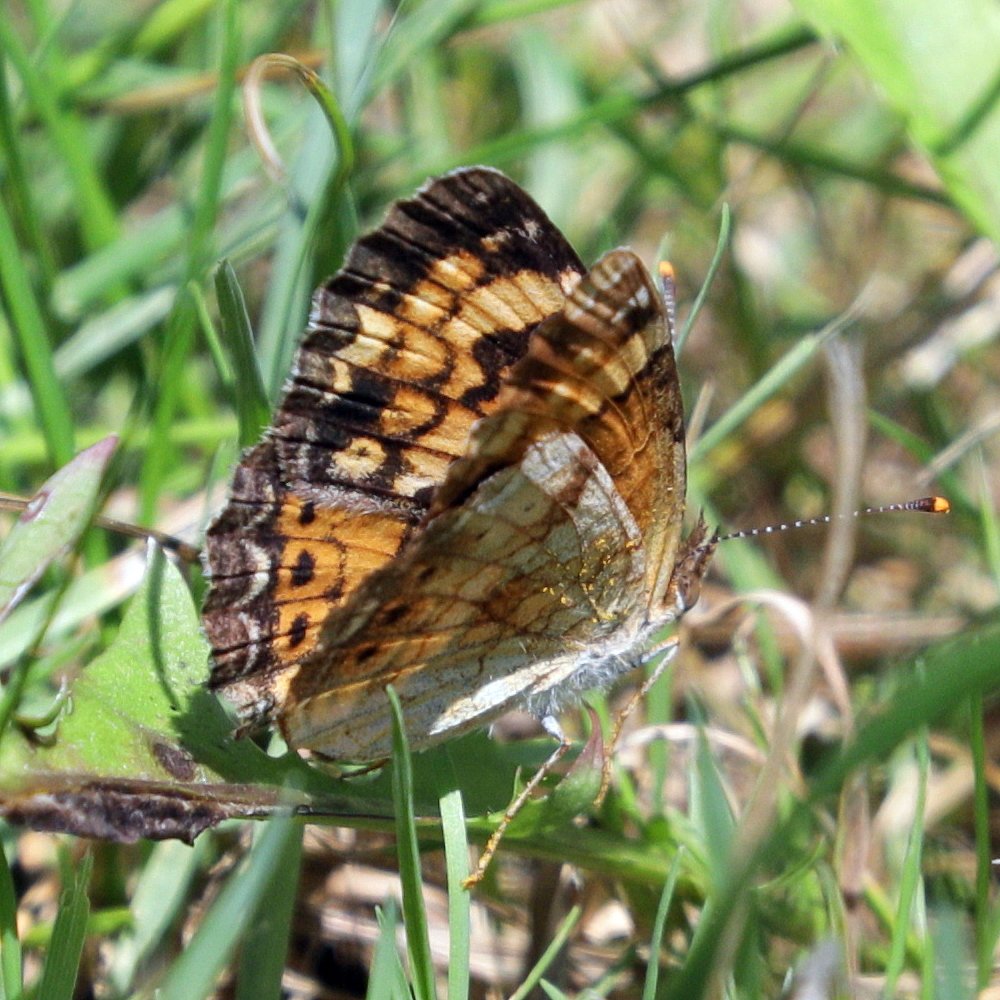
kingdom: Animalia
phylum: Arthropoda
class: Insecta
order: Lepidoptera
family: Nymphalidae
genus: Phyciodes
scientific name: Phyciodes tharos
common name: Northern Crescent
